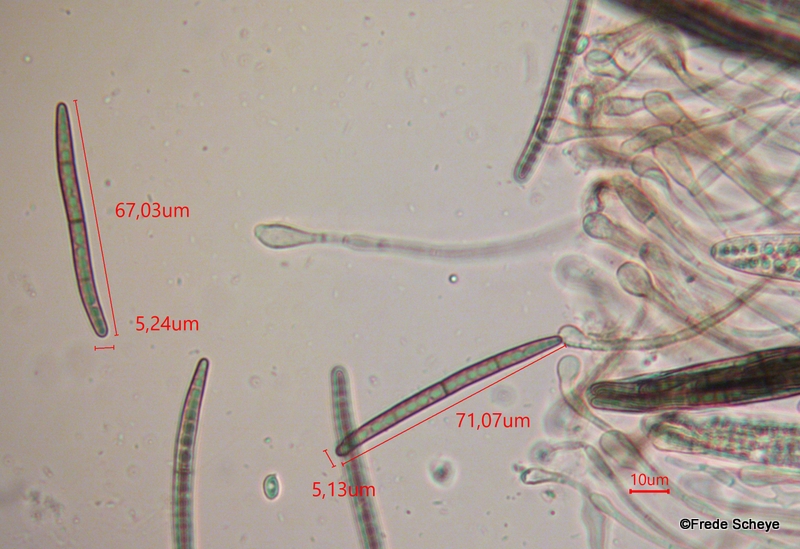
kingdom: Fungi
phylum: Ascomycota
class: Geoglossomycetes
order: Geoglossales
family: Geoglossaceae
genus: Glutinoglossum
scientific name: Glutinoglossum glutinosum
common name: slimet jordtunge
